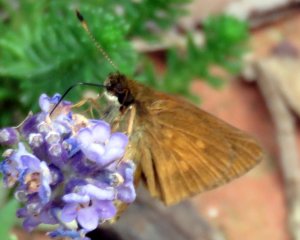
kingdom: Animalia
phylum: Arthropoda
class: Insecta
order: Lepidoptera
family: Hesperiidae
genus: Poanes
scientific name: Poanes viator
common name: Broad-winged Skipper
